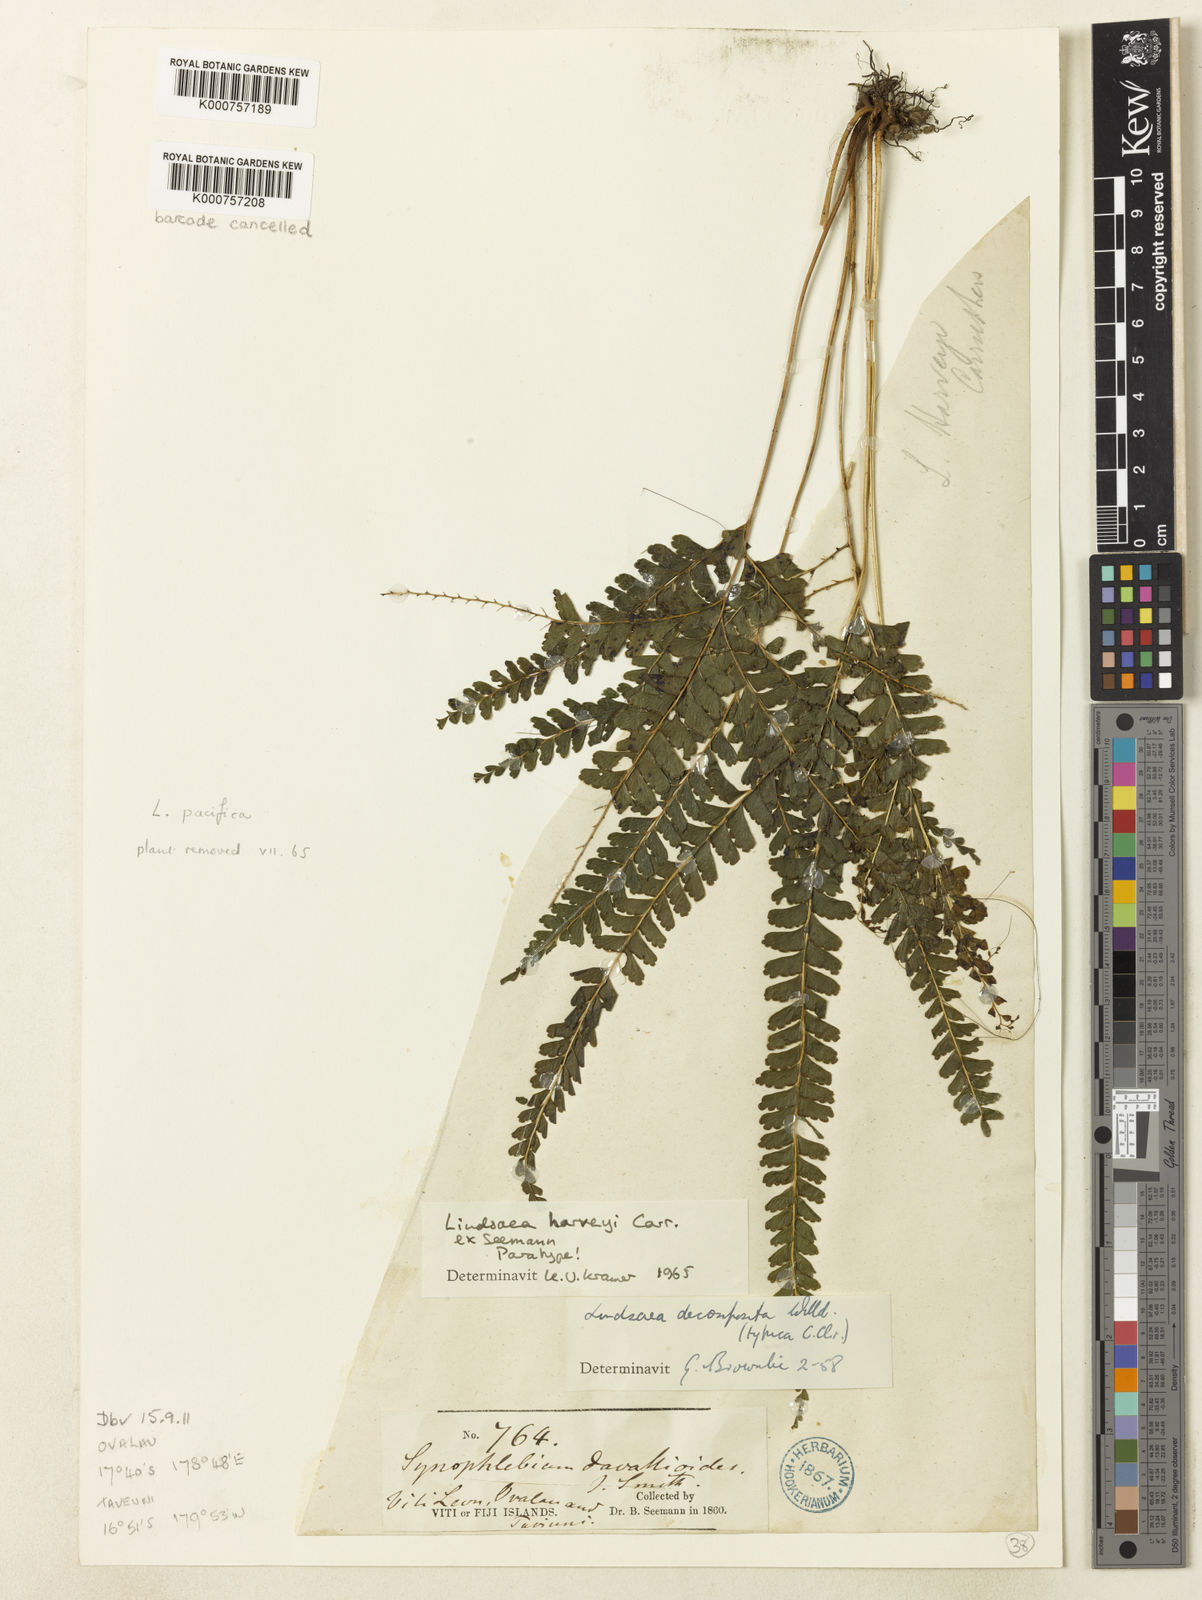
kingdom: Plantae
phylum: Tracheophyta
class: Polypodiopsida
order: Polypodiales
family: Lindsaeaceae
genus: Lindsaea
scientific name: Lindsaea
